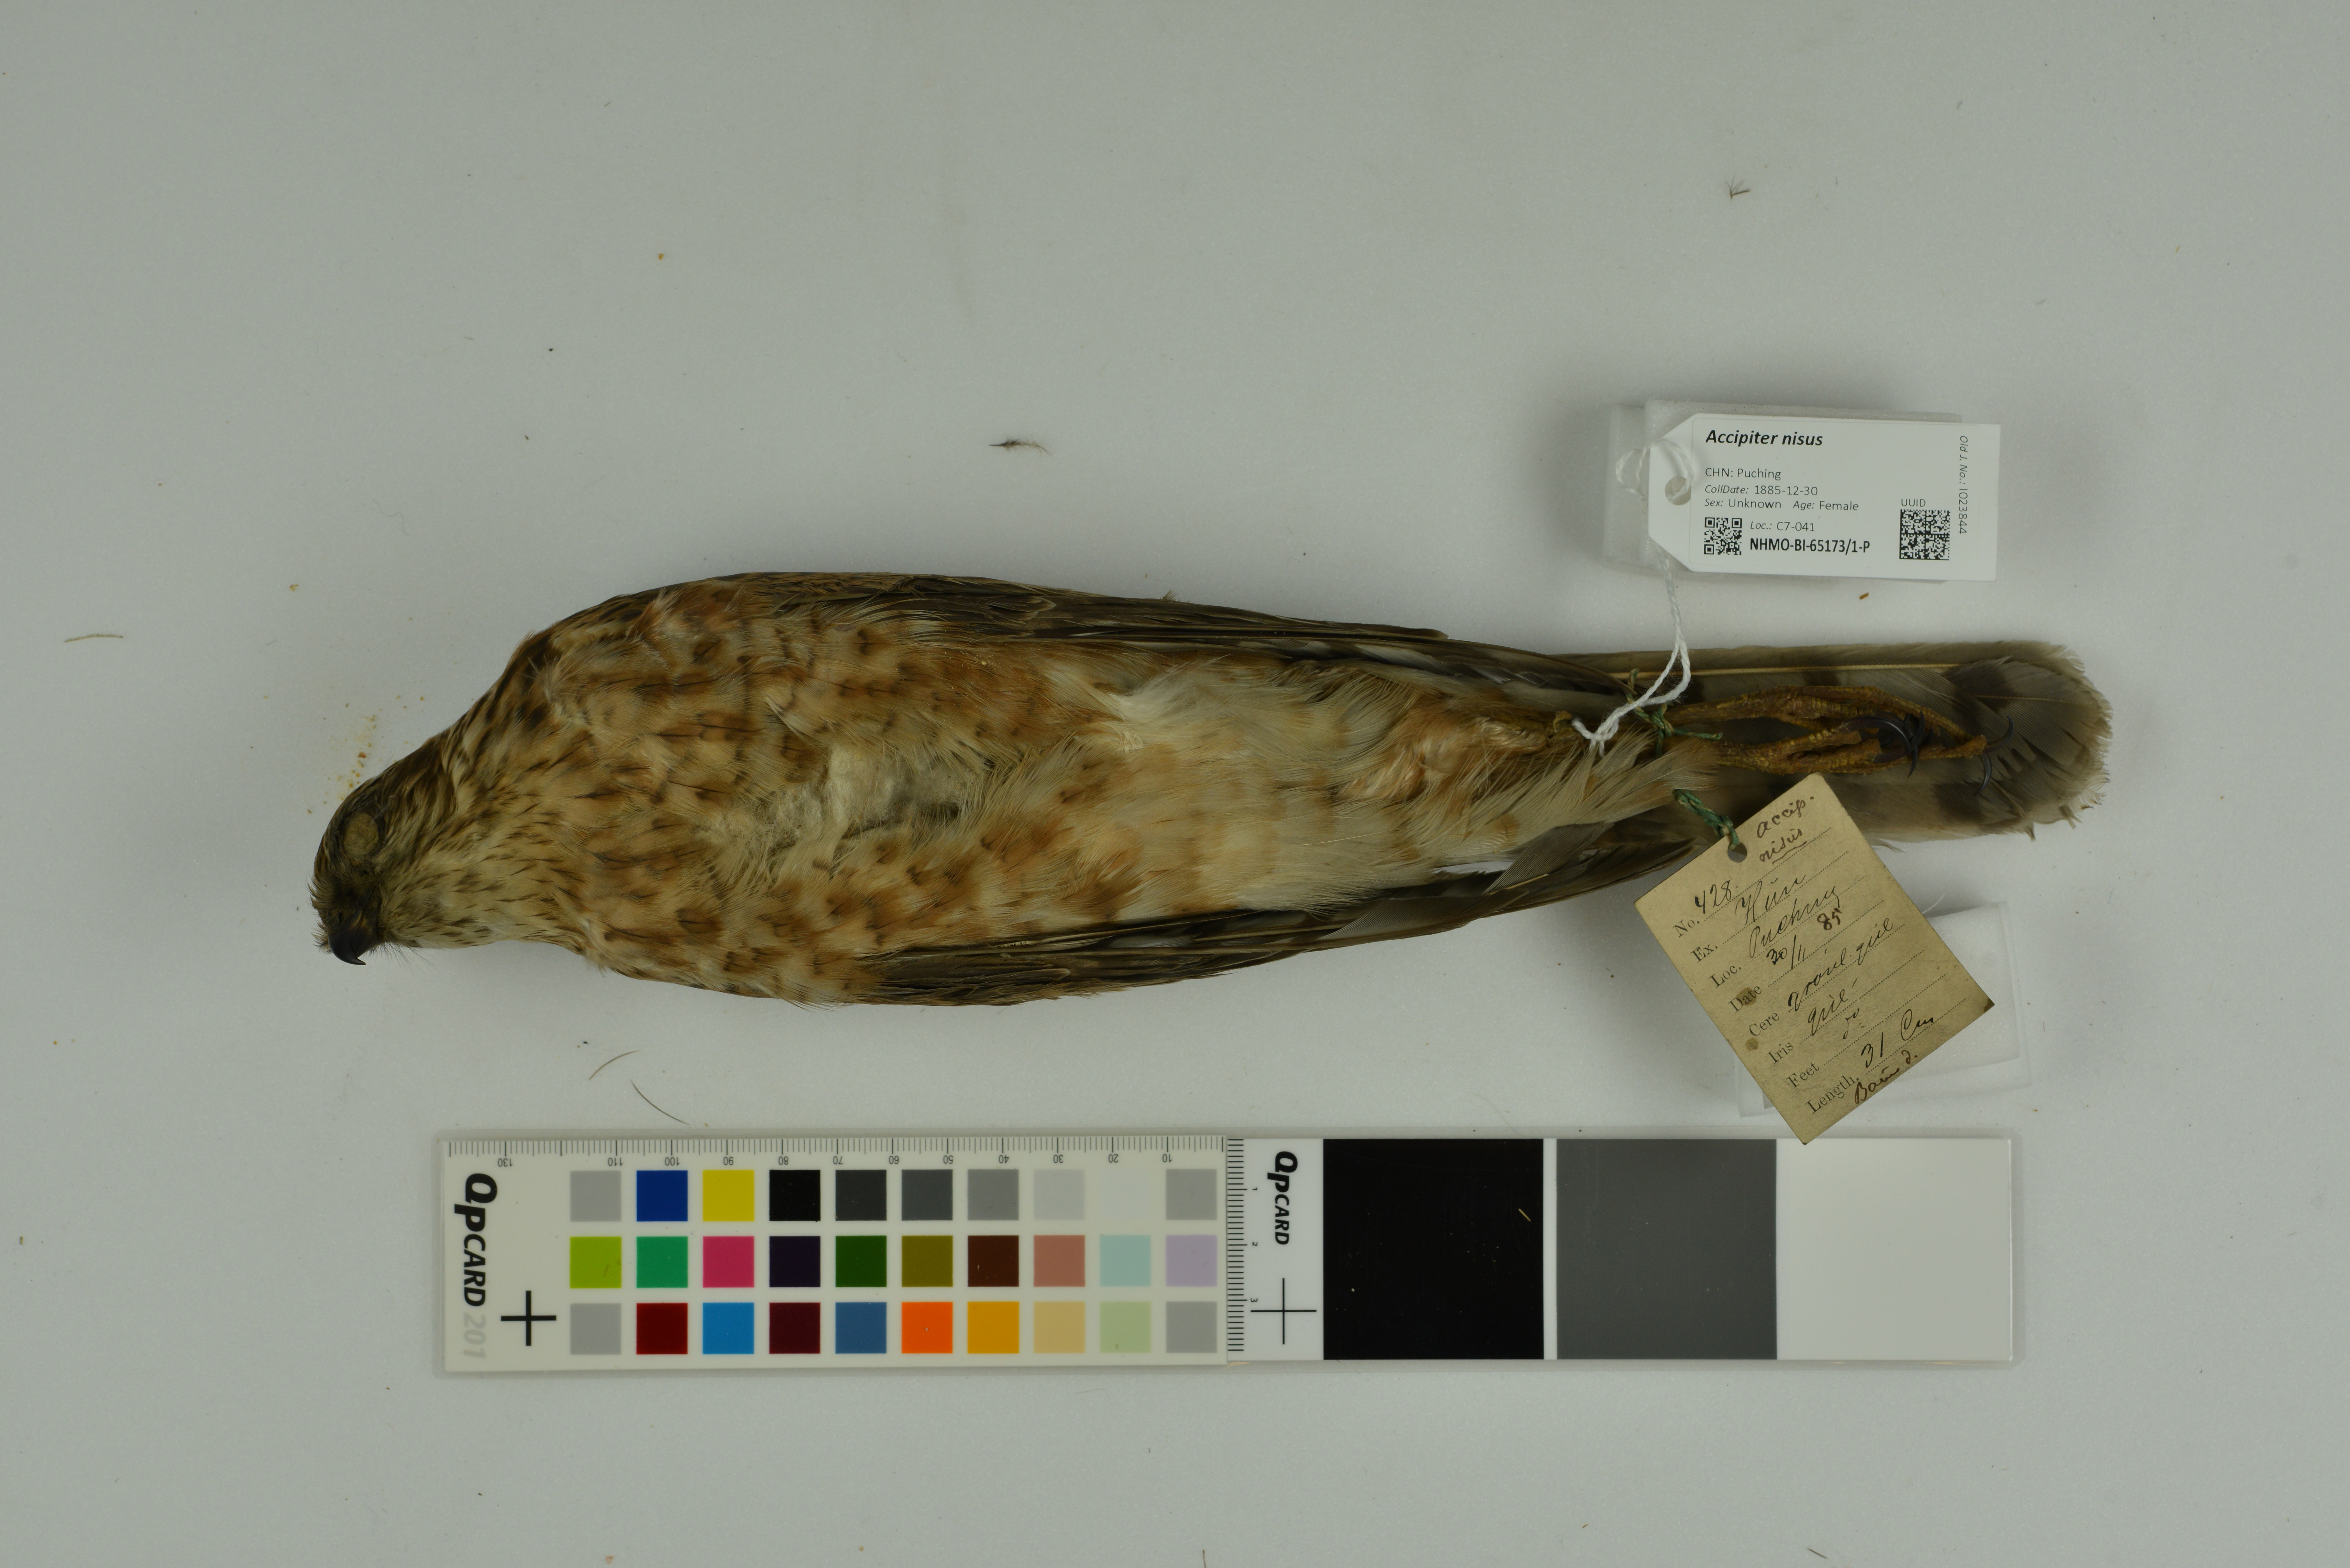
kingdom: Animalia
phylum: Chordata
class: Aves
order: Accipitriformes
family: Accipitridae
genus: Accipiter
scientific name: Accipiter nisus
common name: Eurasian sparrowhawk
